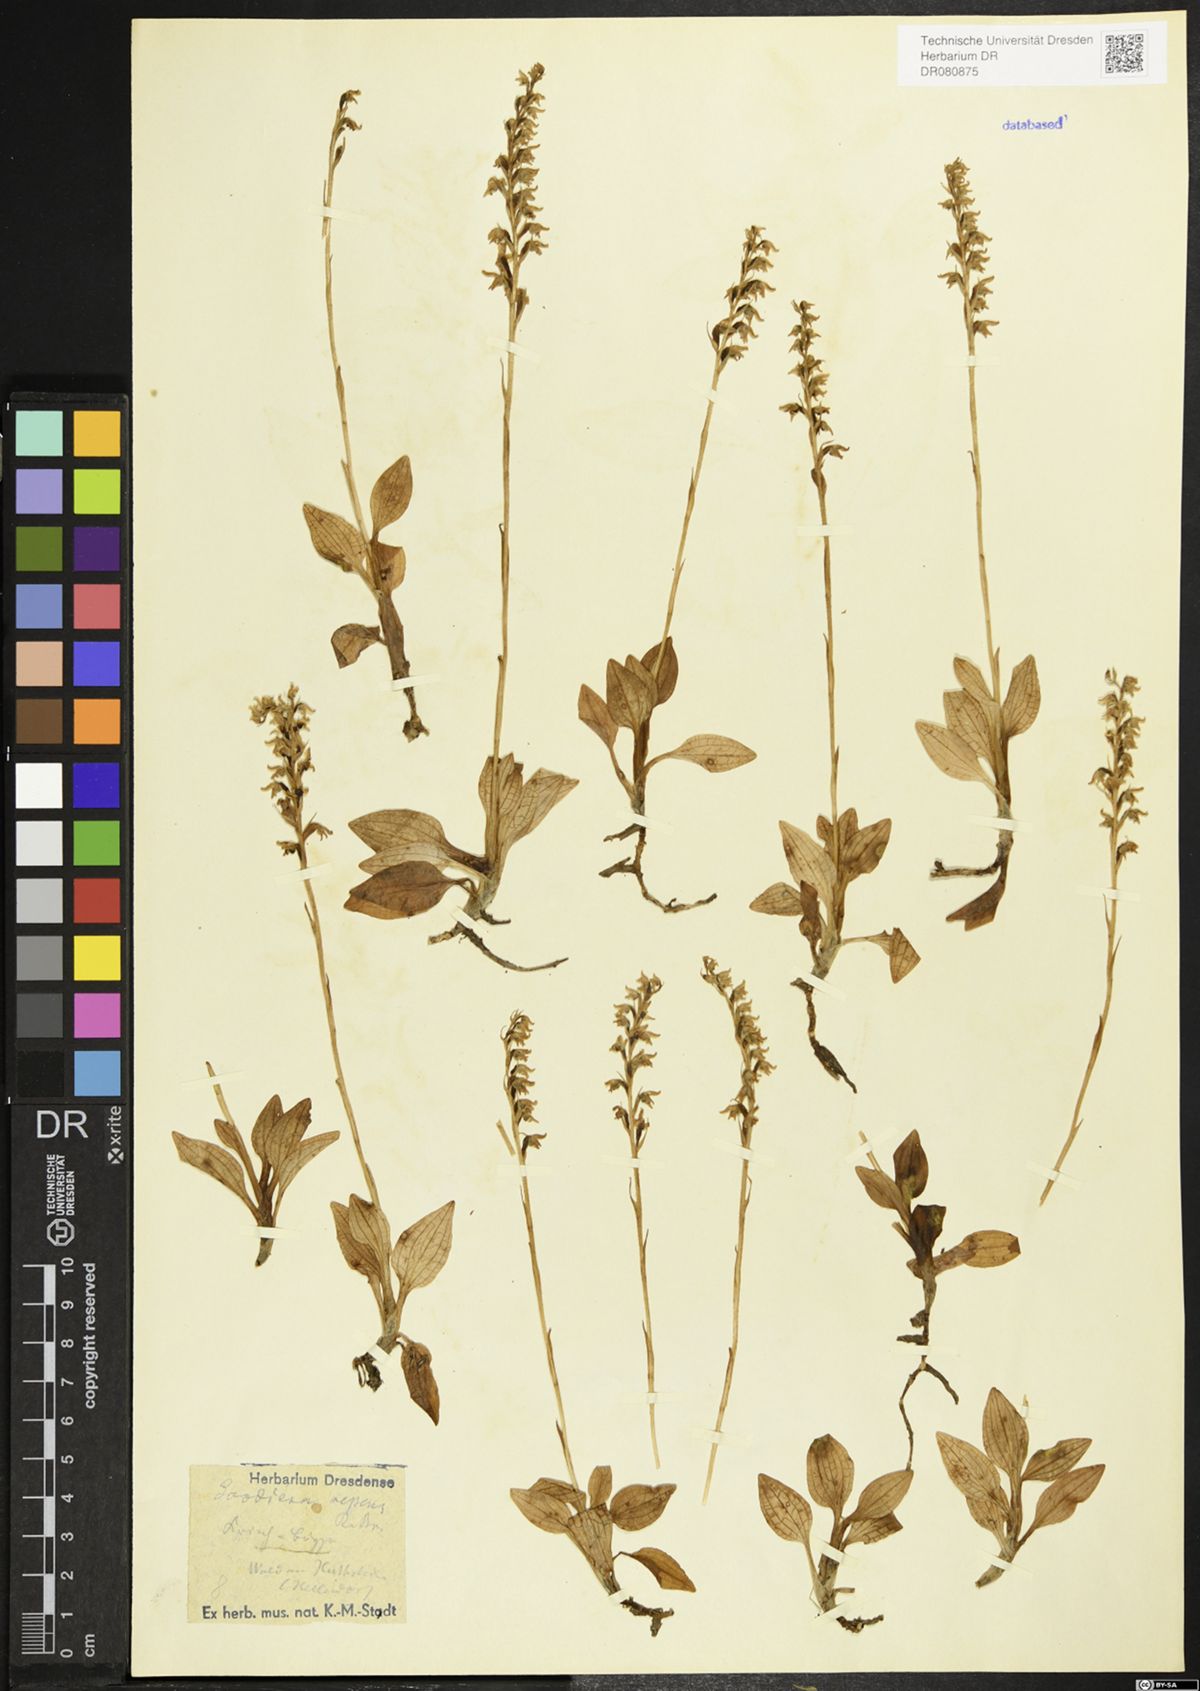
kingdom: Plantae
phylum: Tracheophyta
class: Liliopsida
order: Asparagales
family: Orchidaceae
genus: Goodyera
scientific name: Goodyera repens
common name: Creeping lady's-tresses
